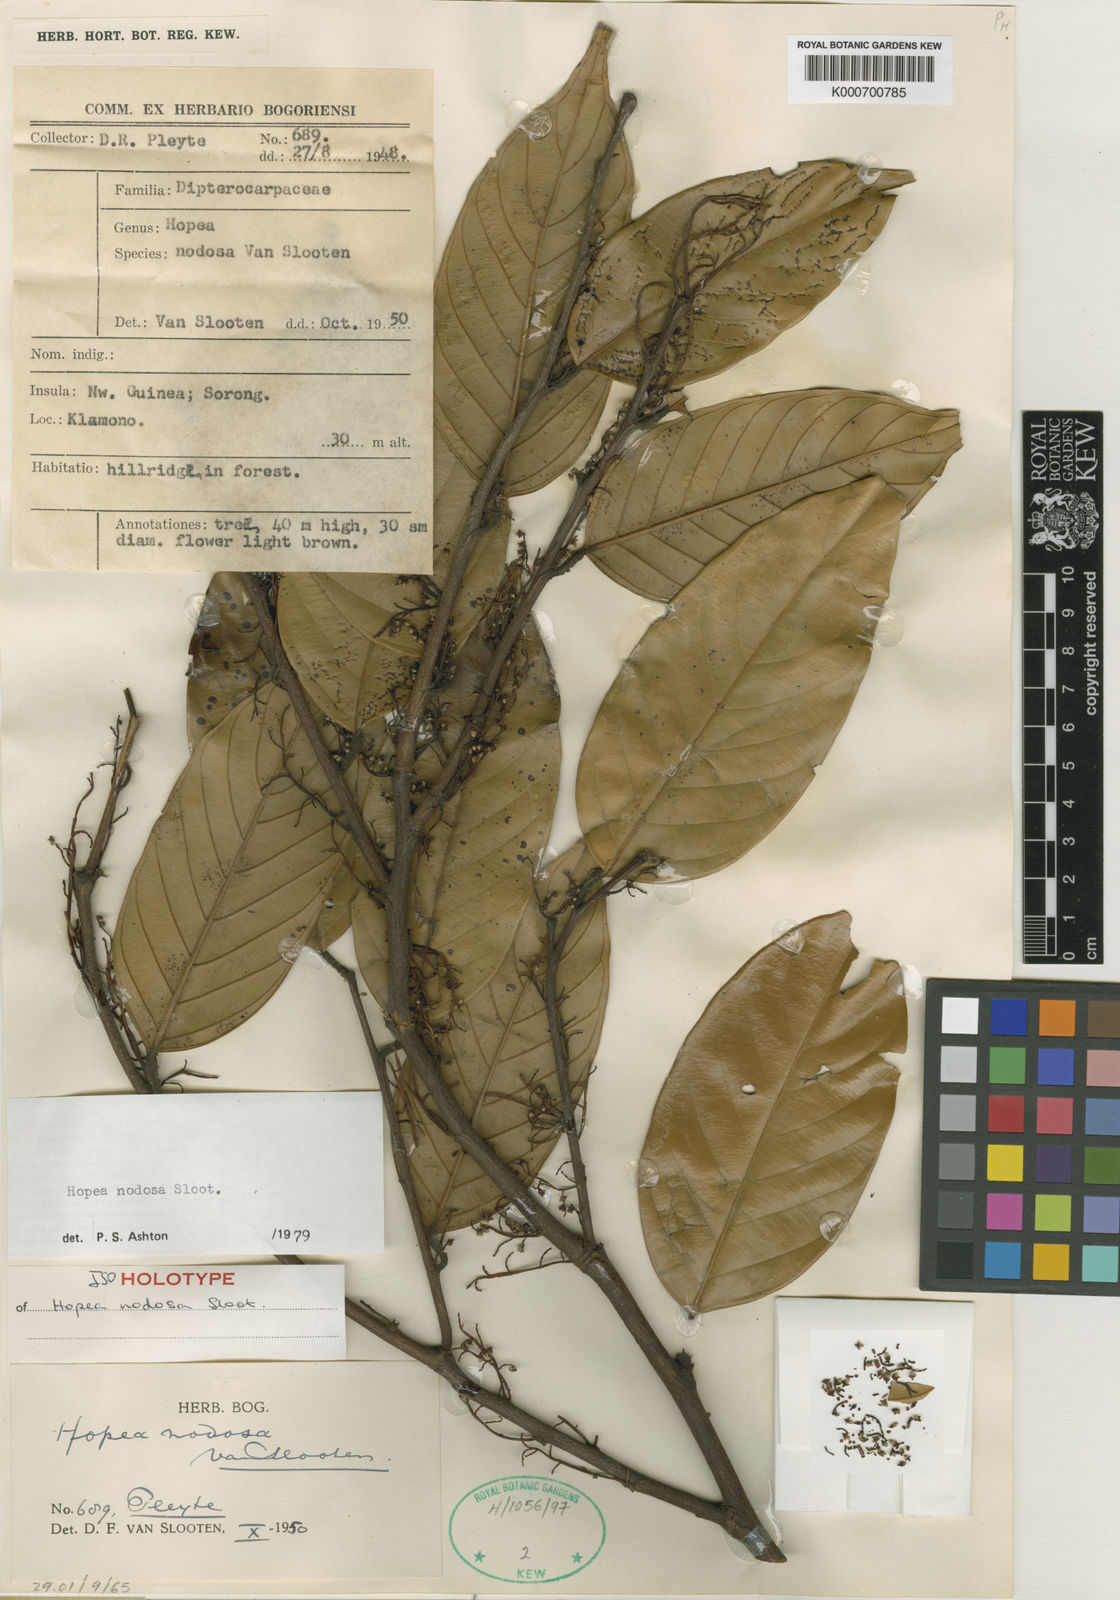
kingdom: Plantae
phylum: Tracheophyta
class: Magnoliopsida
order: Malvales
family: Dipterocarpaceae
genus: Hopea
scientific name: Hopea nodosa
